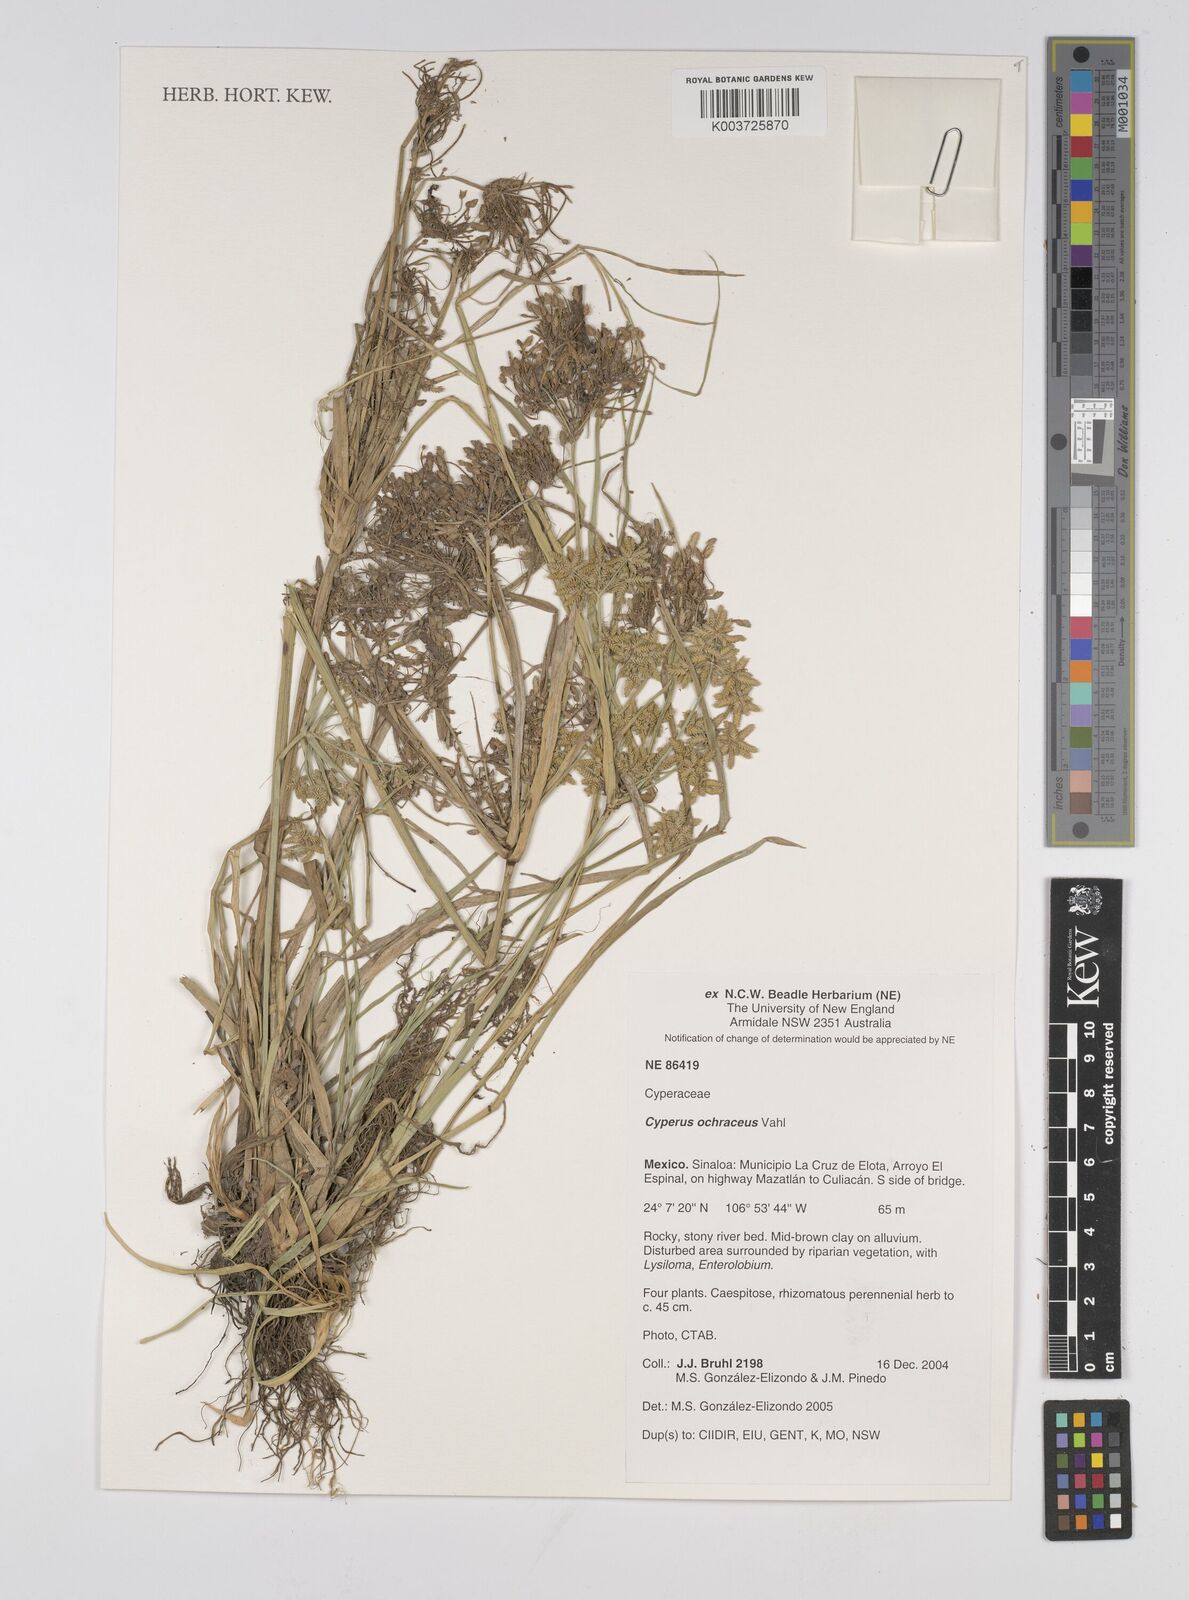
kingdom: Plantae
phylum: Tracheophyta
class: Liliopsida
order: Poales
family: Cyperaceae
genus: Cyperus
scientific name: Cyperus ochraceus
